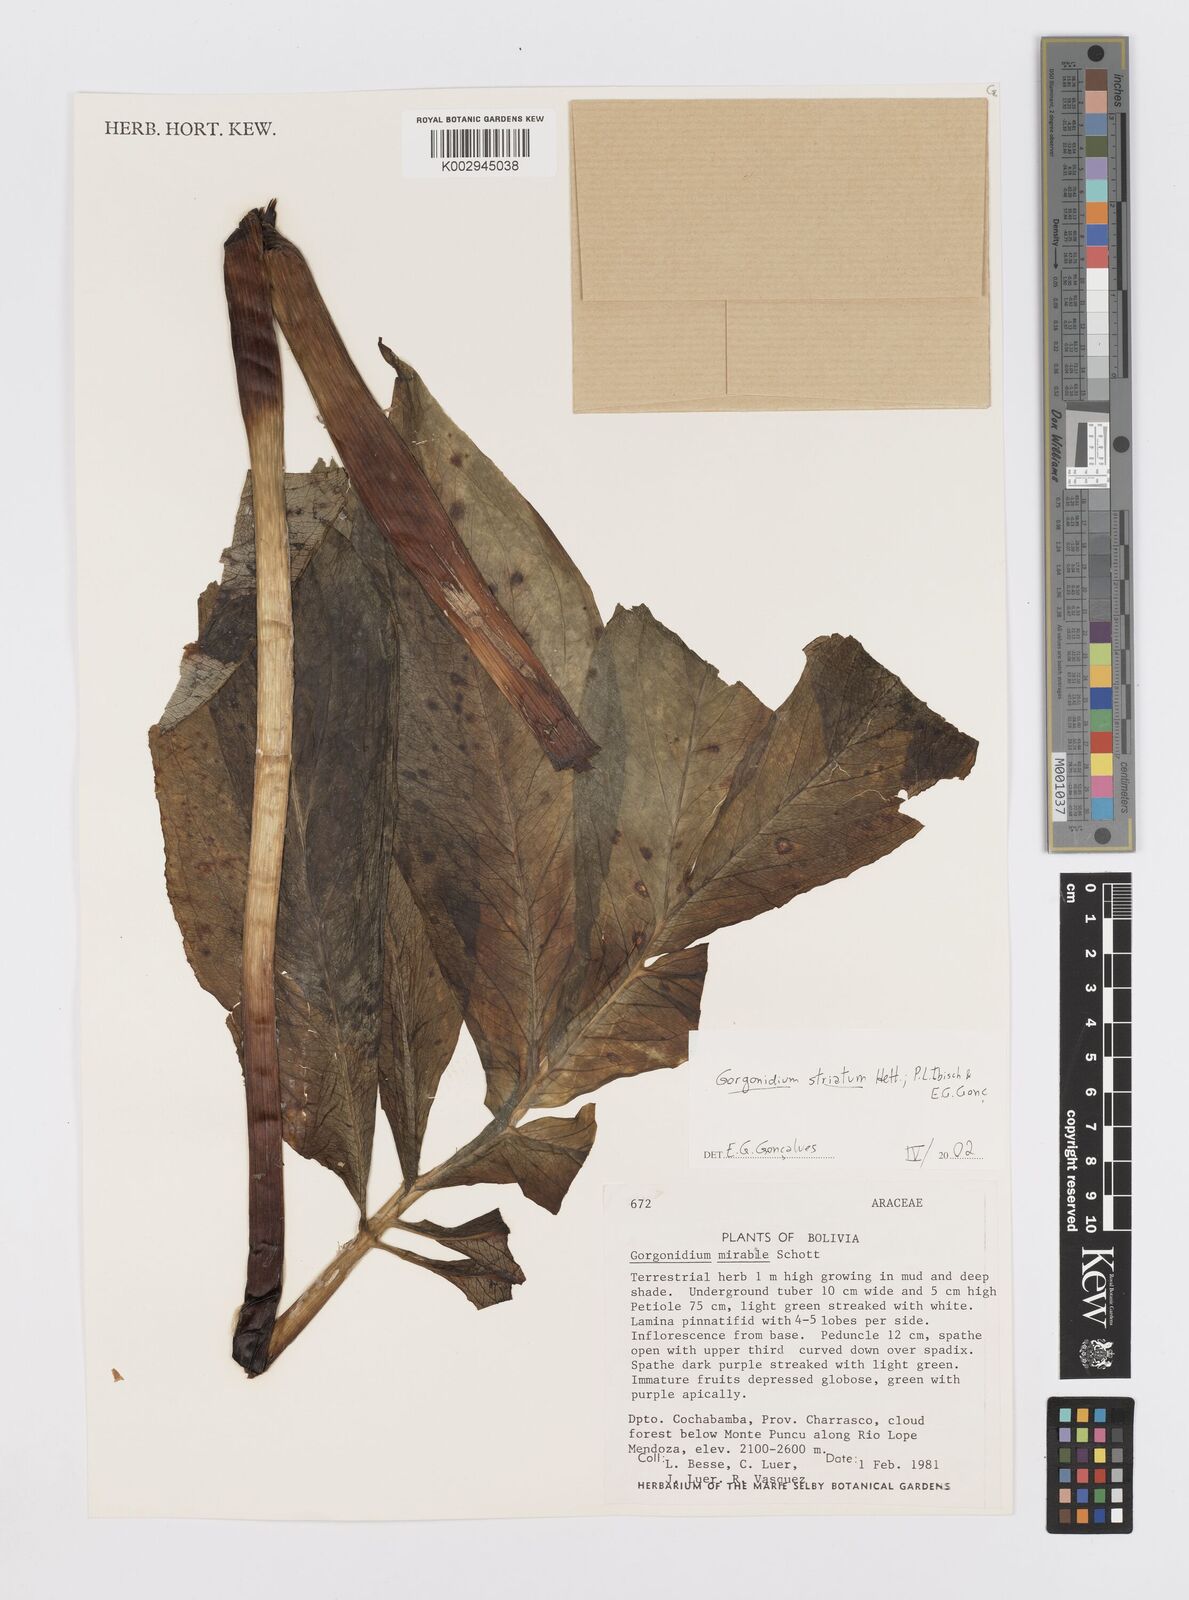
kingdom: Plantae
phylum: Tracheophyta
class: Liliopsida
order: Alismatales
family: Araceae
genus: Gorgonidium
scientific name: Gorgonidium striatum
